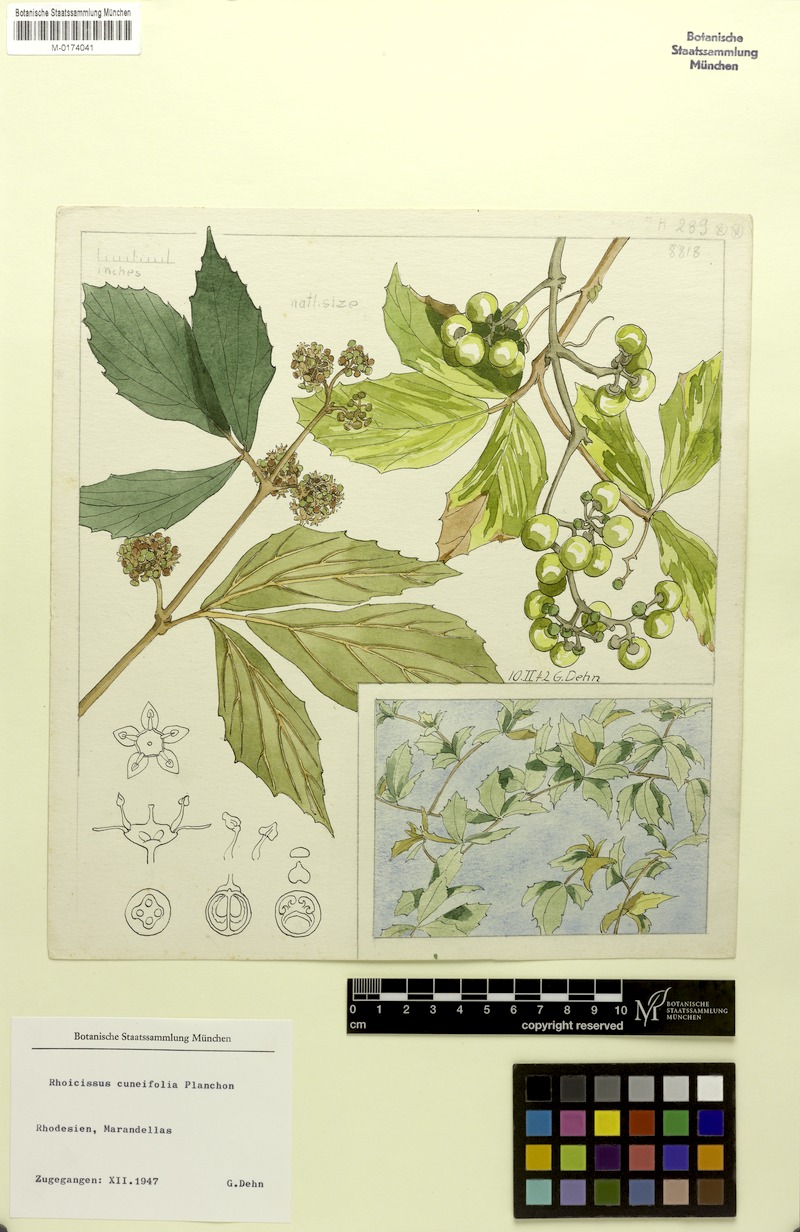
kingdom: Plantae
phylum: Tracheophyta
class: Magnoliopsida
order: Vitales
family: Vitaceae
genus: Rhoicissus
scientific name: Rhoicissus tridentata
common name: Common forest grape
